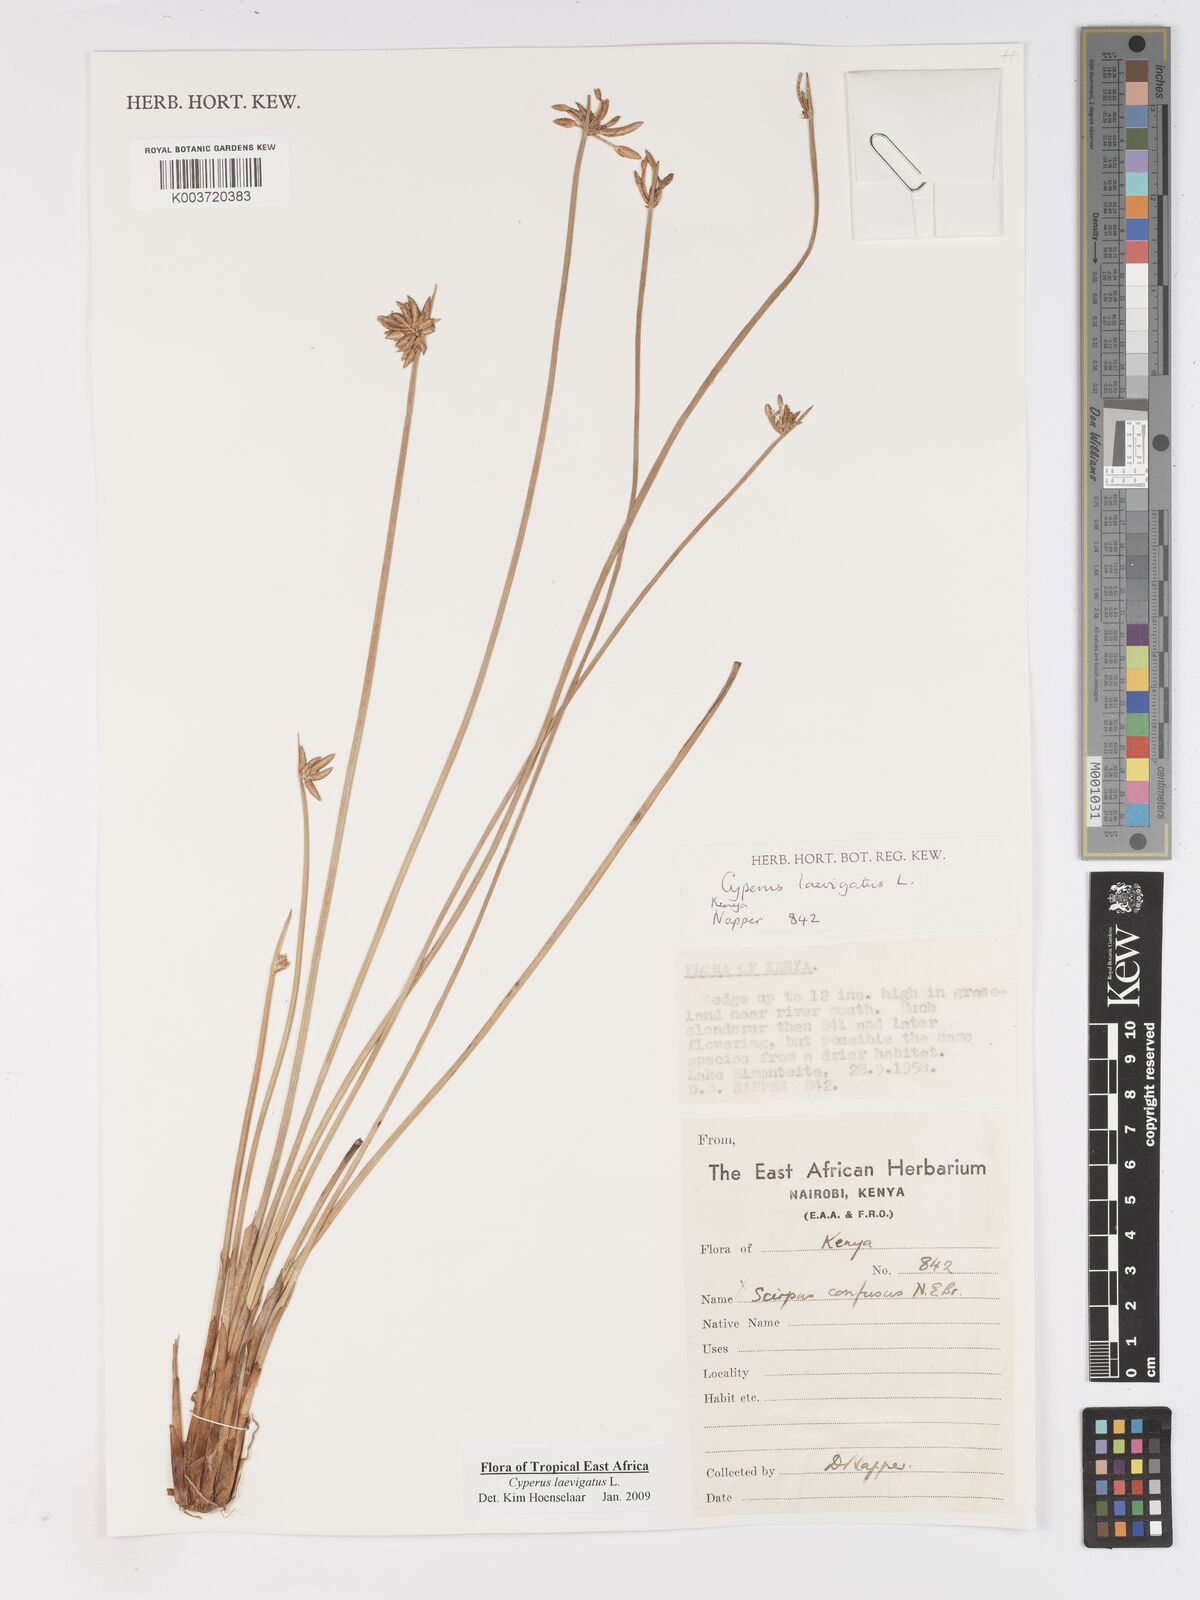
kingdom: Plantae
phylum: Tracheophyta
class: Liliopsida
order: Poales
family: Cyperaceae
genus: Cyperus
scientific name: Cyperus laevigatus
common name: Smooth flat sedge
